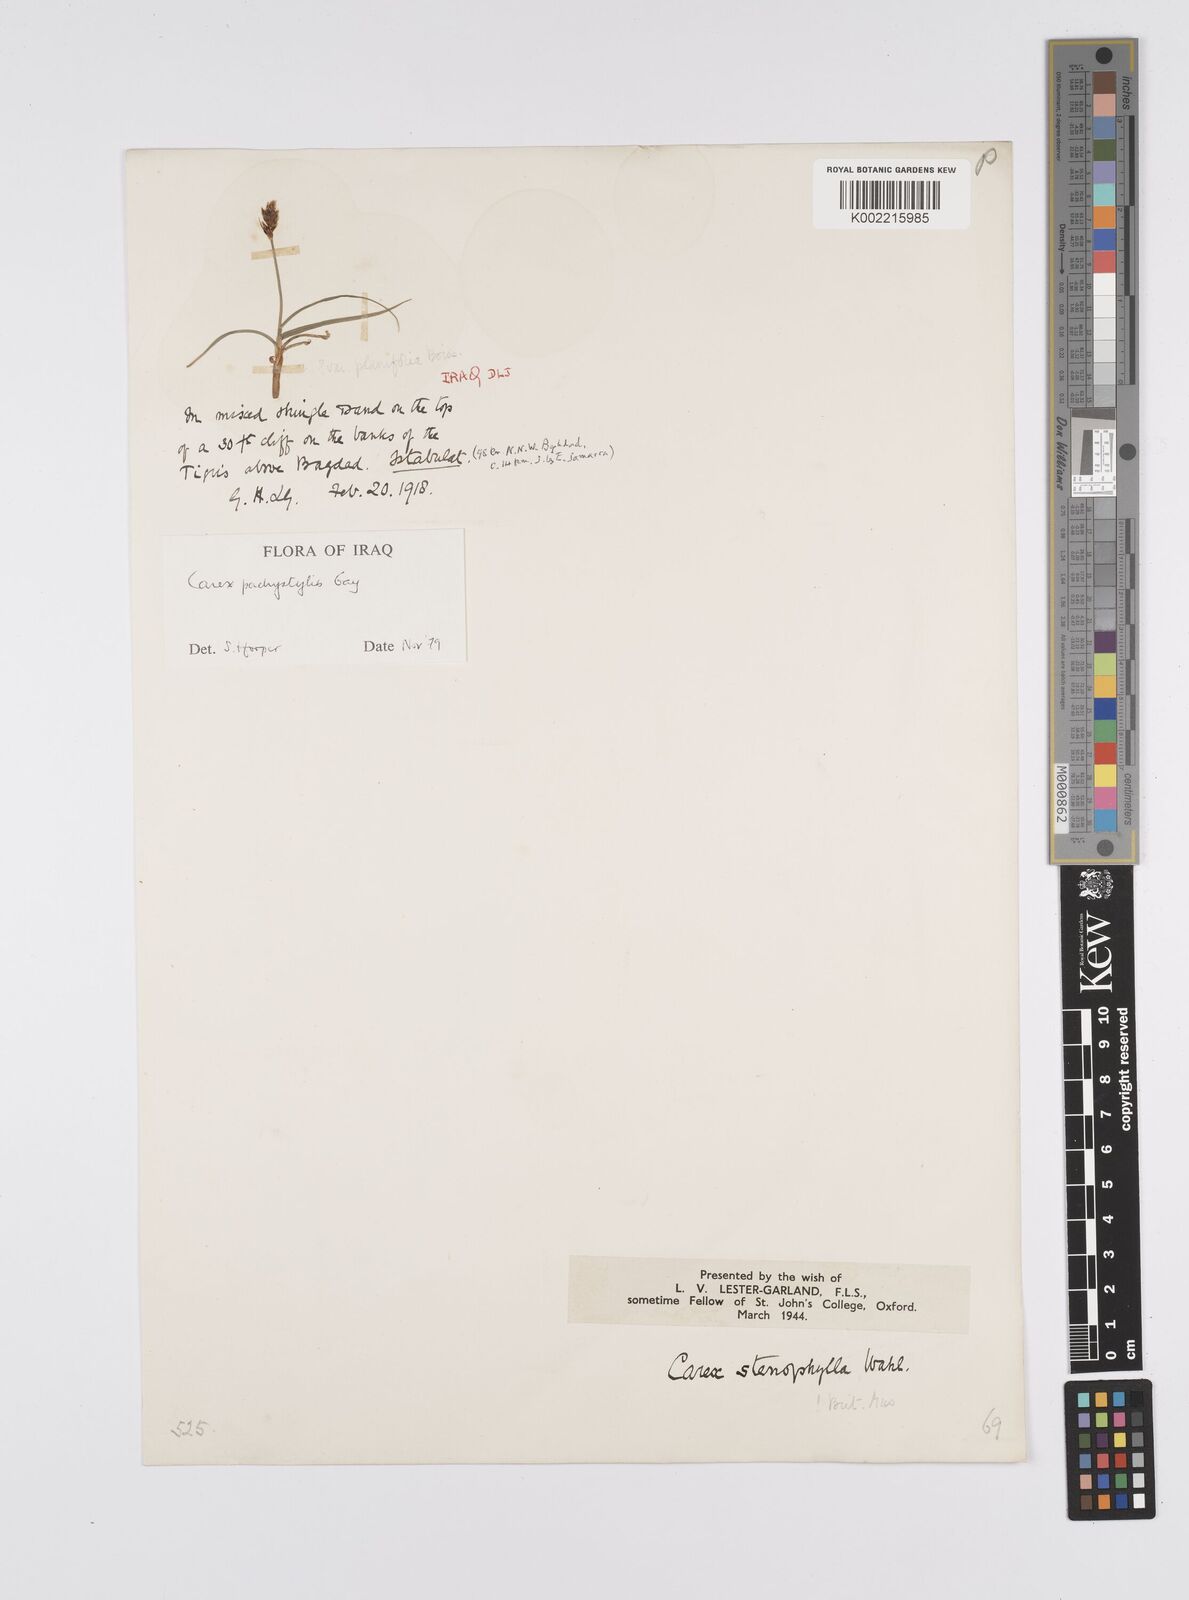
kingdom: Plantae
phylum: Tracheophyta
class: Liliopsida
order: Poales
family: Cyperaceae
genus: Carex
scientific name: Carex pachystylis
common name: Thick-stem sedge
